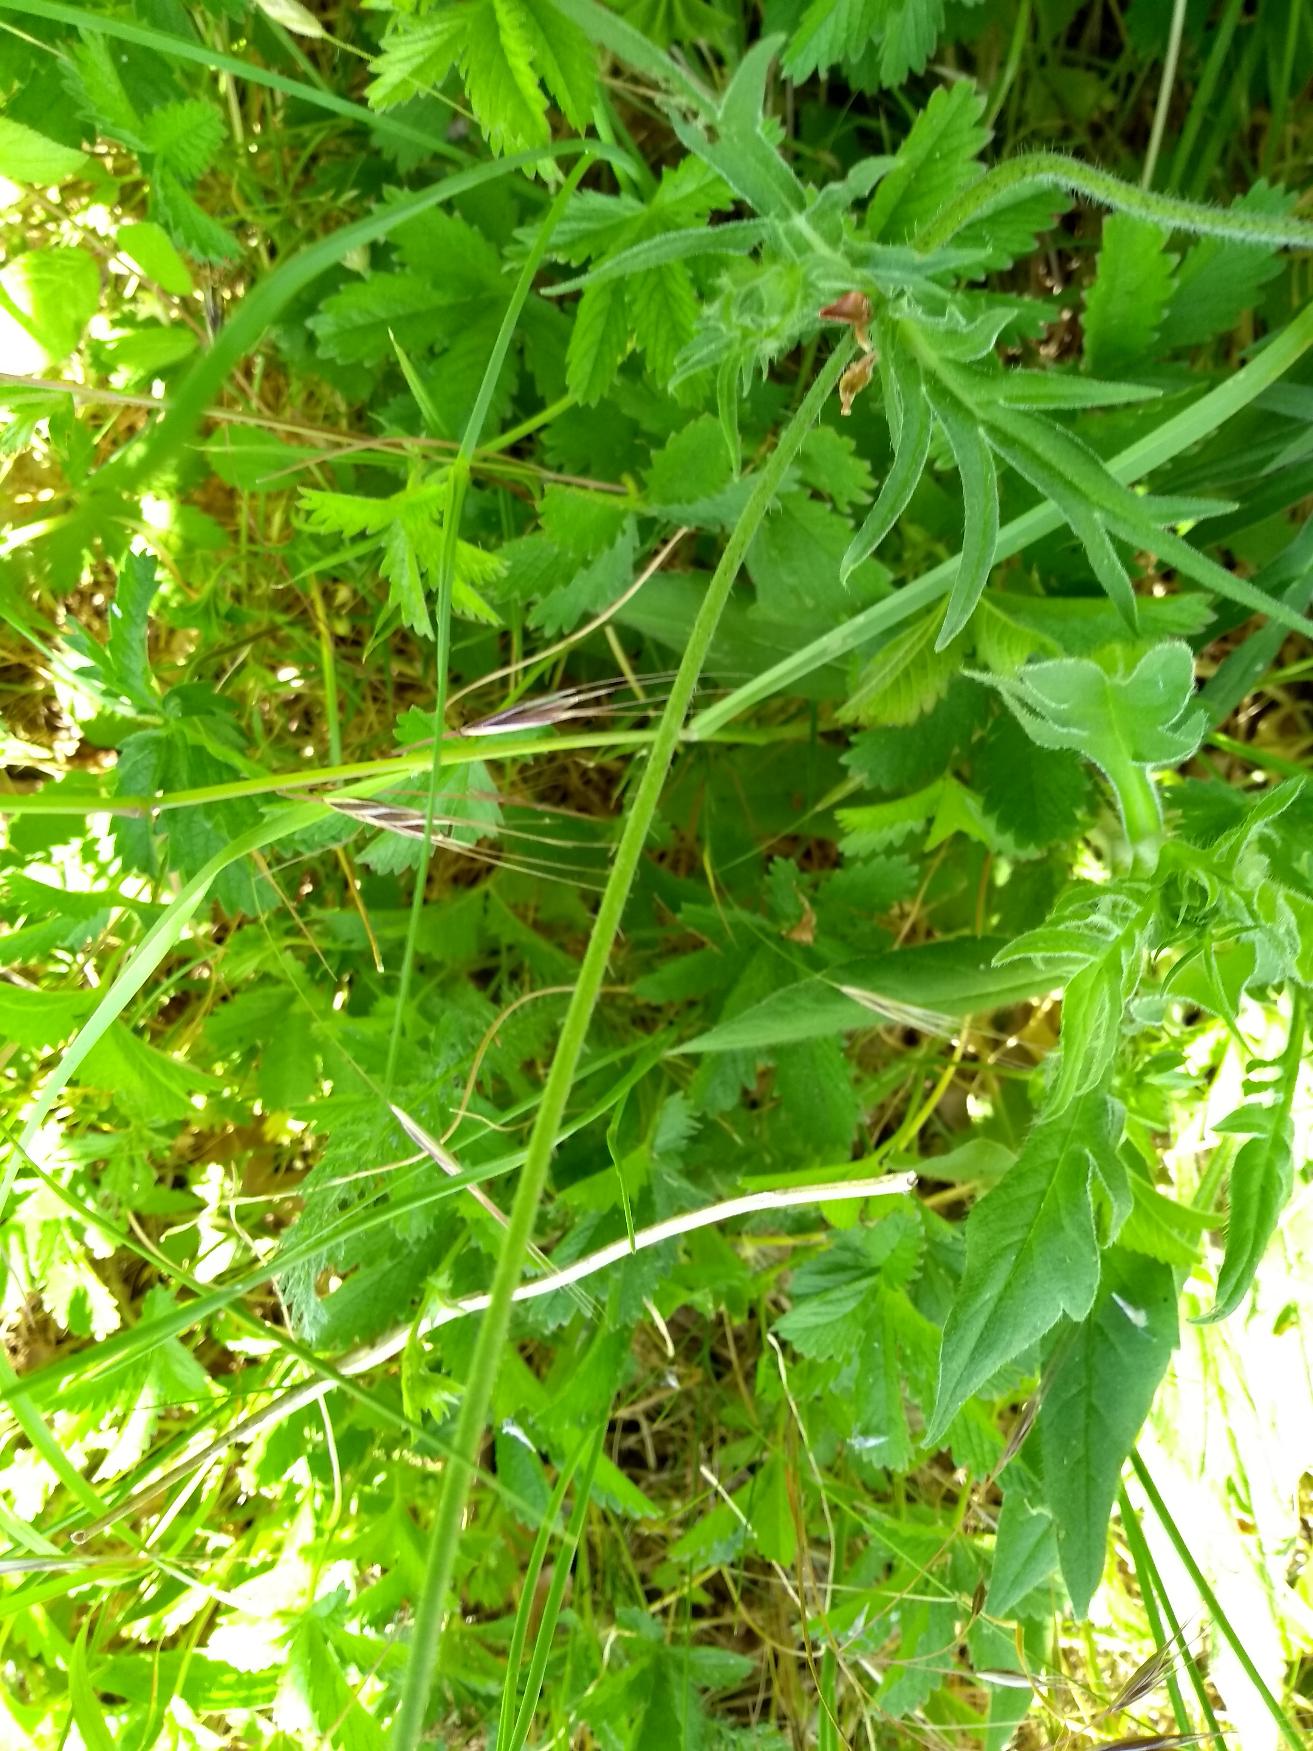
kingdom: Plantae
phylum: Tracheophyta
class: Magnoliopsida
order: Dipsacales
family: Caprifoliaceae
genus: Knautia
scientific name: Knautia arvensis
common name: Blåhat
